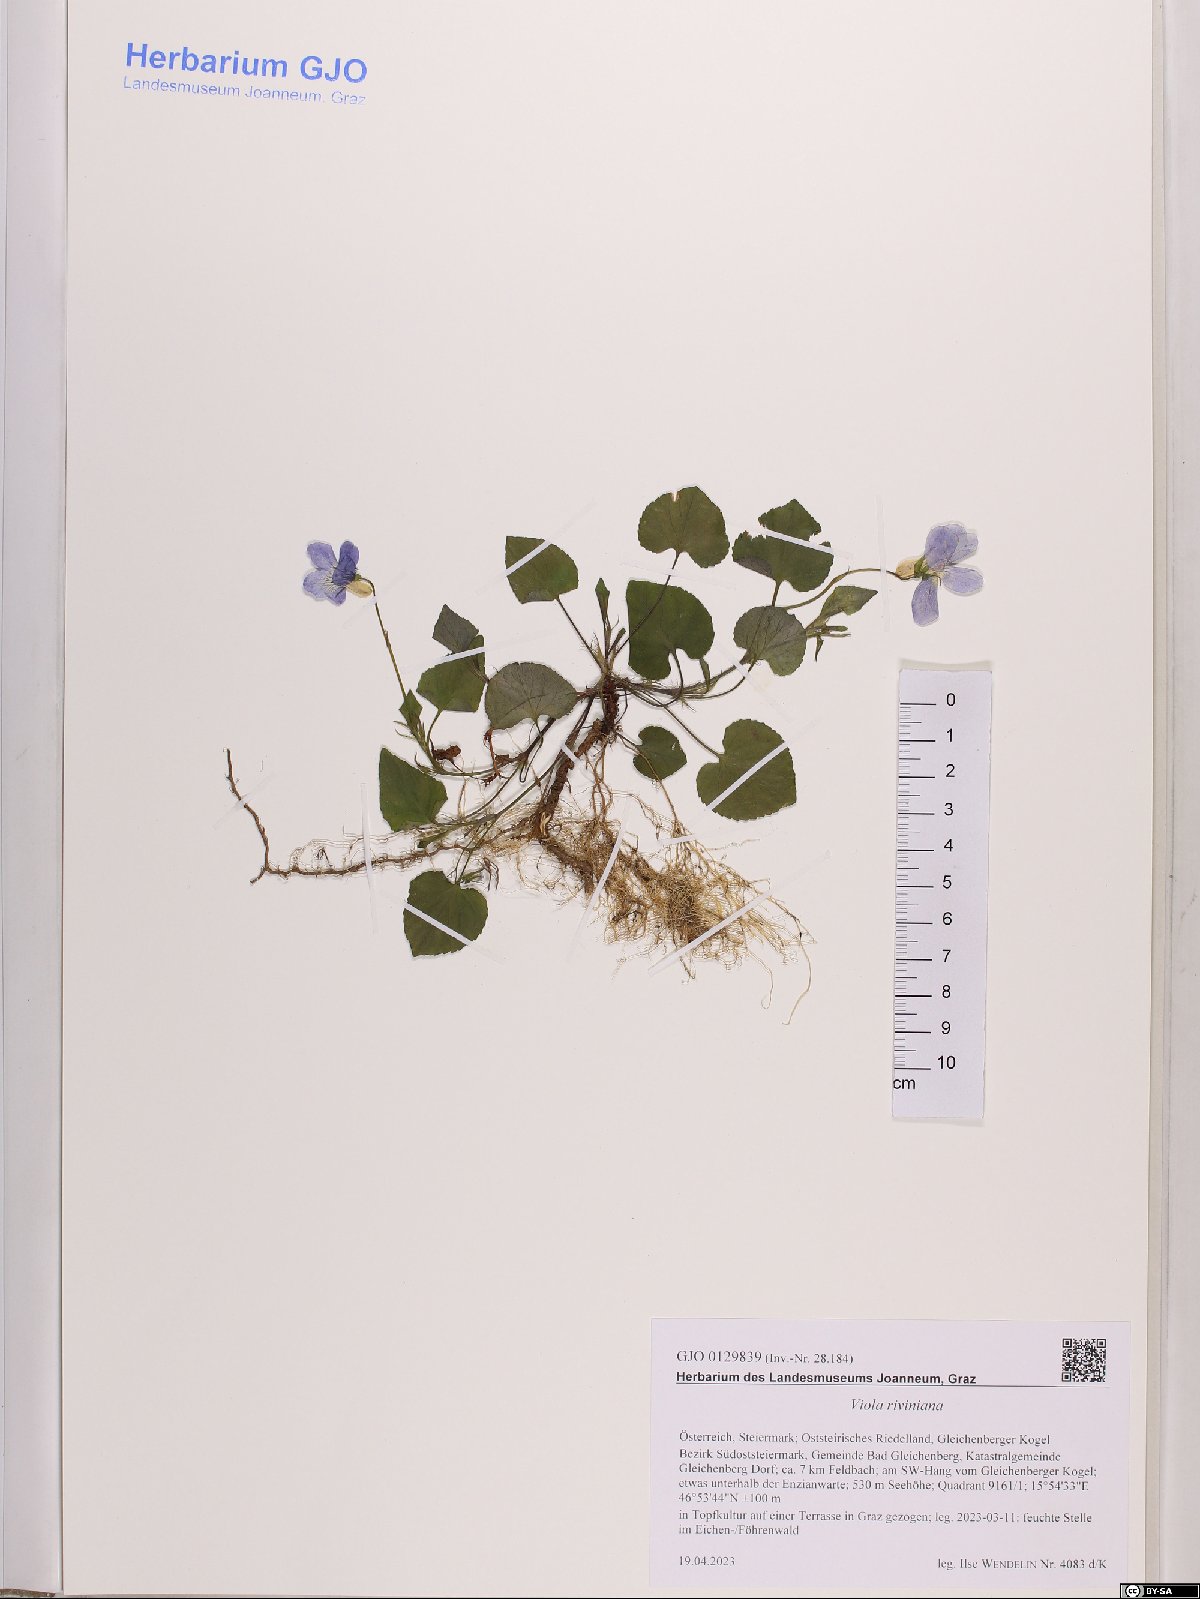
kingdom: Plantae
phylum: Tracheophyta
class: Magnoliopsida
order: Malpighiales
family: Violaceae
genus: Viola
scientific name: Viola riviniana
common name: Common dog-violet
